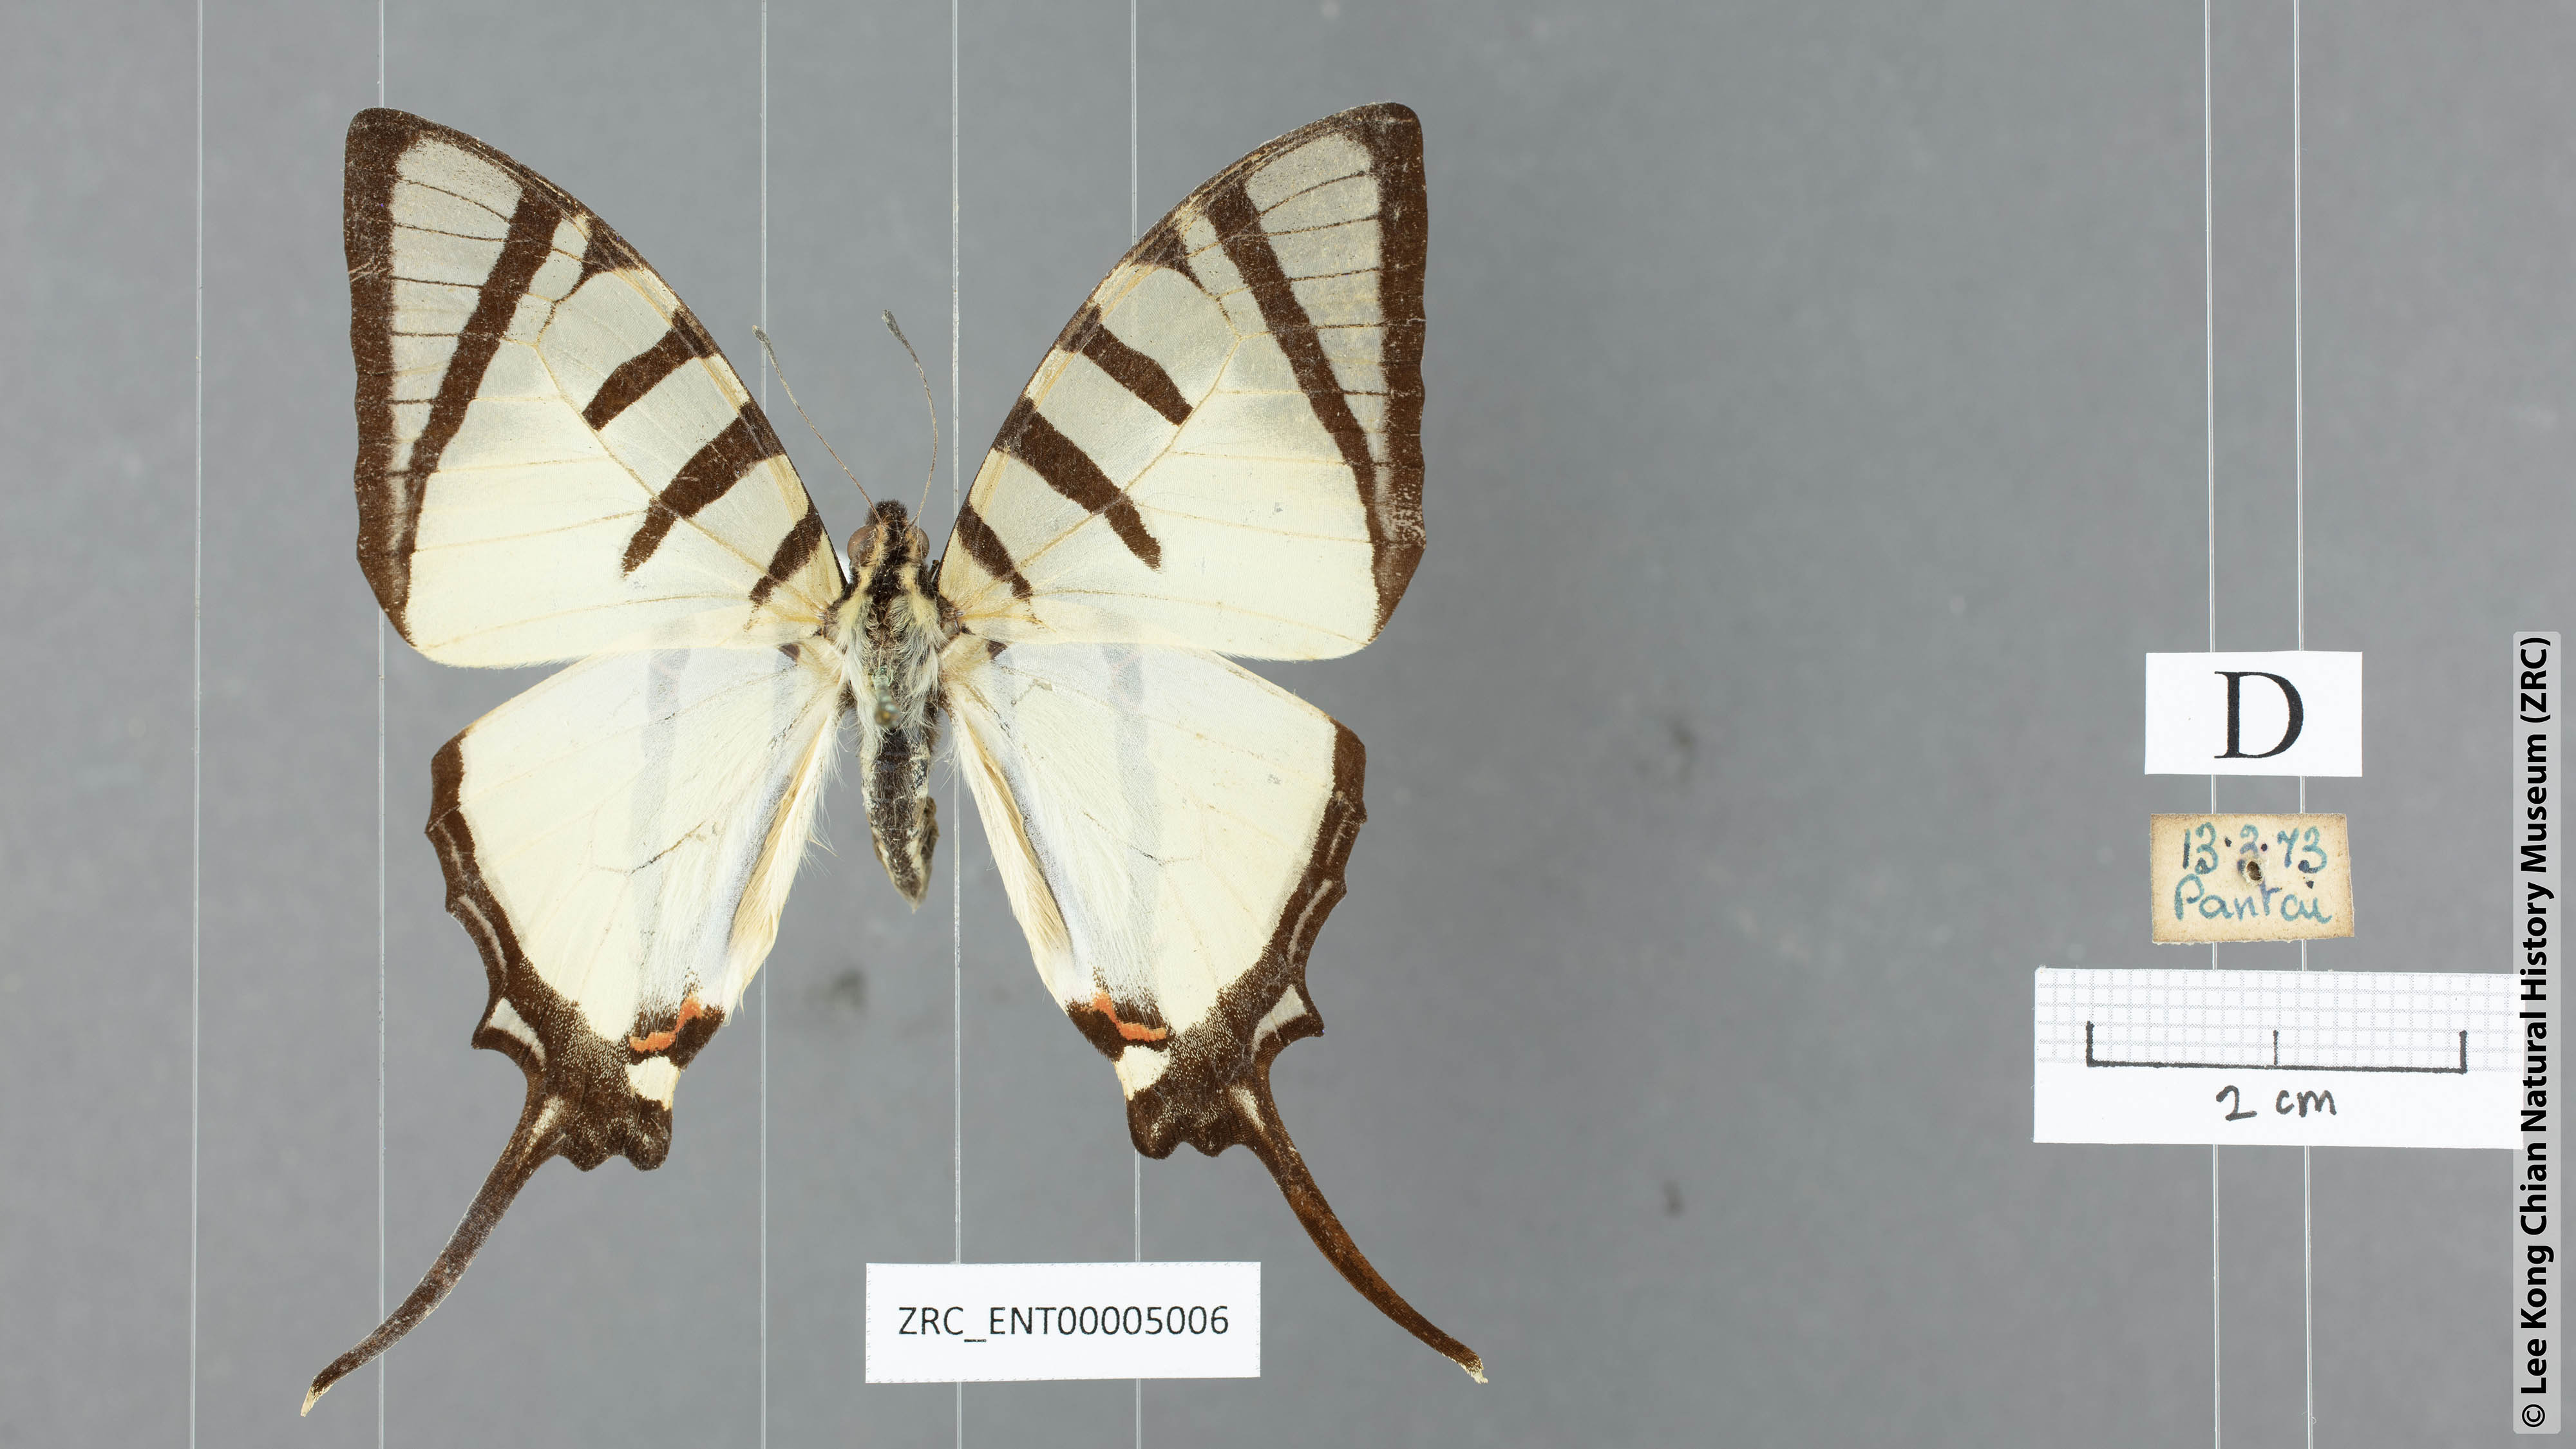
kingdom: Animalia
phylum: Arthropoda
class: Insecta
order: Lepidoptera
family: Papilionidae
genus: Graphium
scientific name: Graphium agetes
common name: Fourbar swordtail
